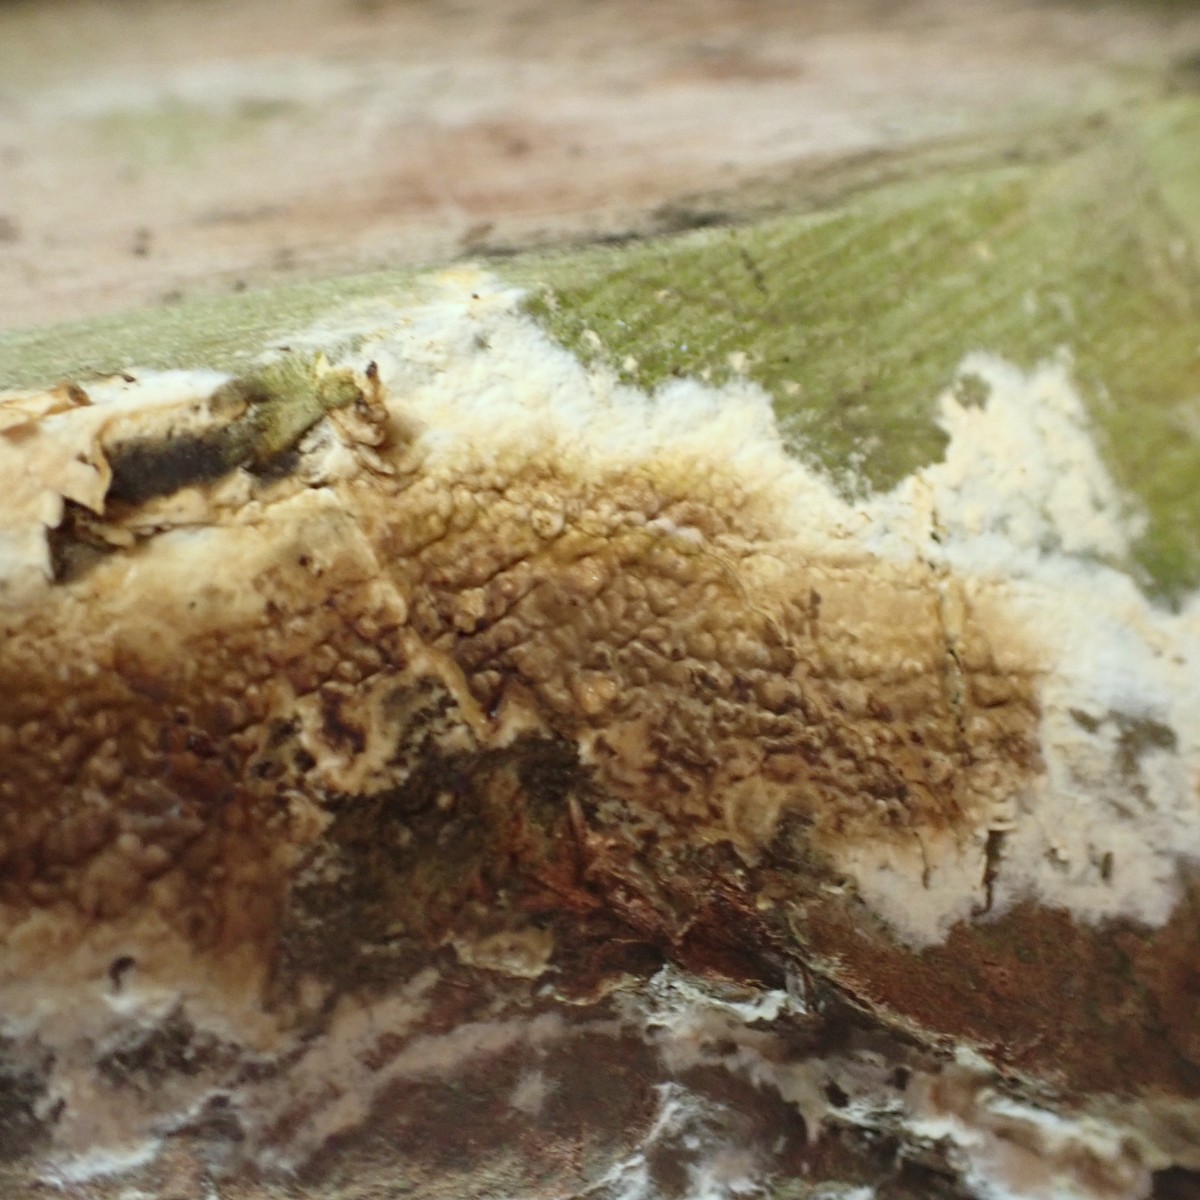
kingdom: Fungi
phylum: Basidiomycota
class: Agaricomycetes
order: Boletales
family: Coniophoraceae
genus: Coniophora
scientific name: Coniophora puteana
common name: gul tømmersvamp
